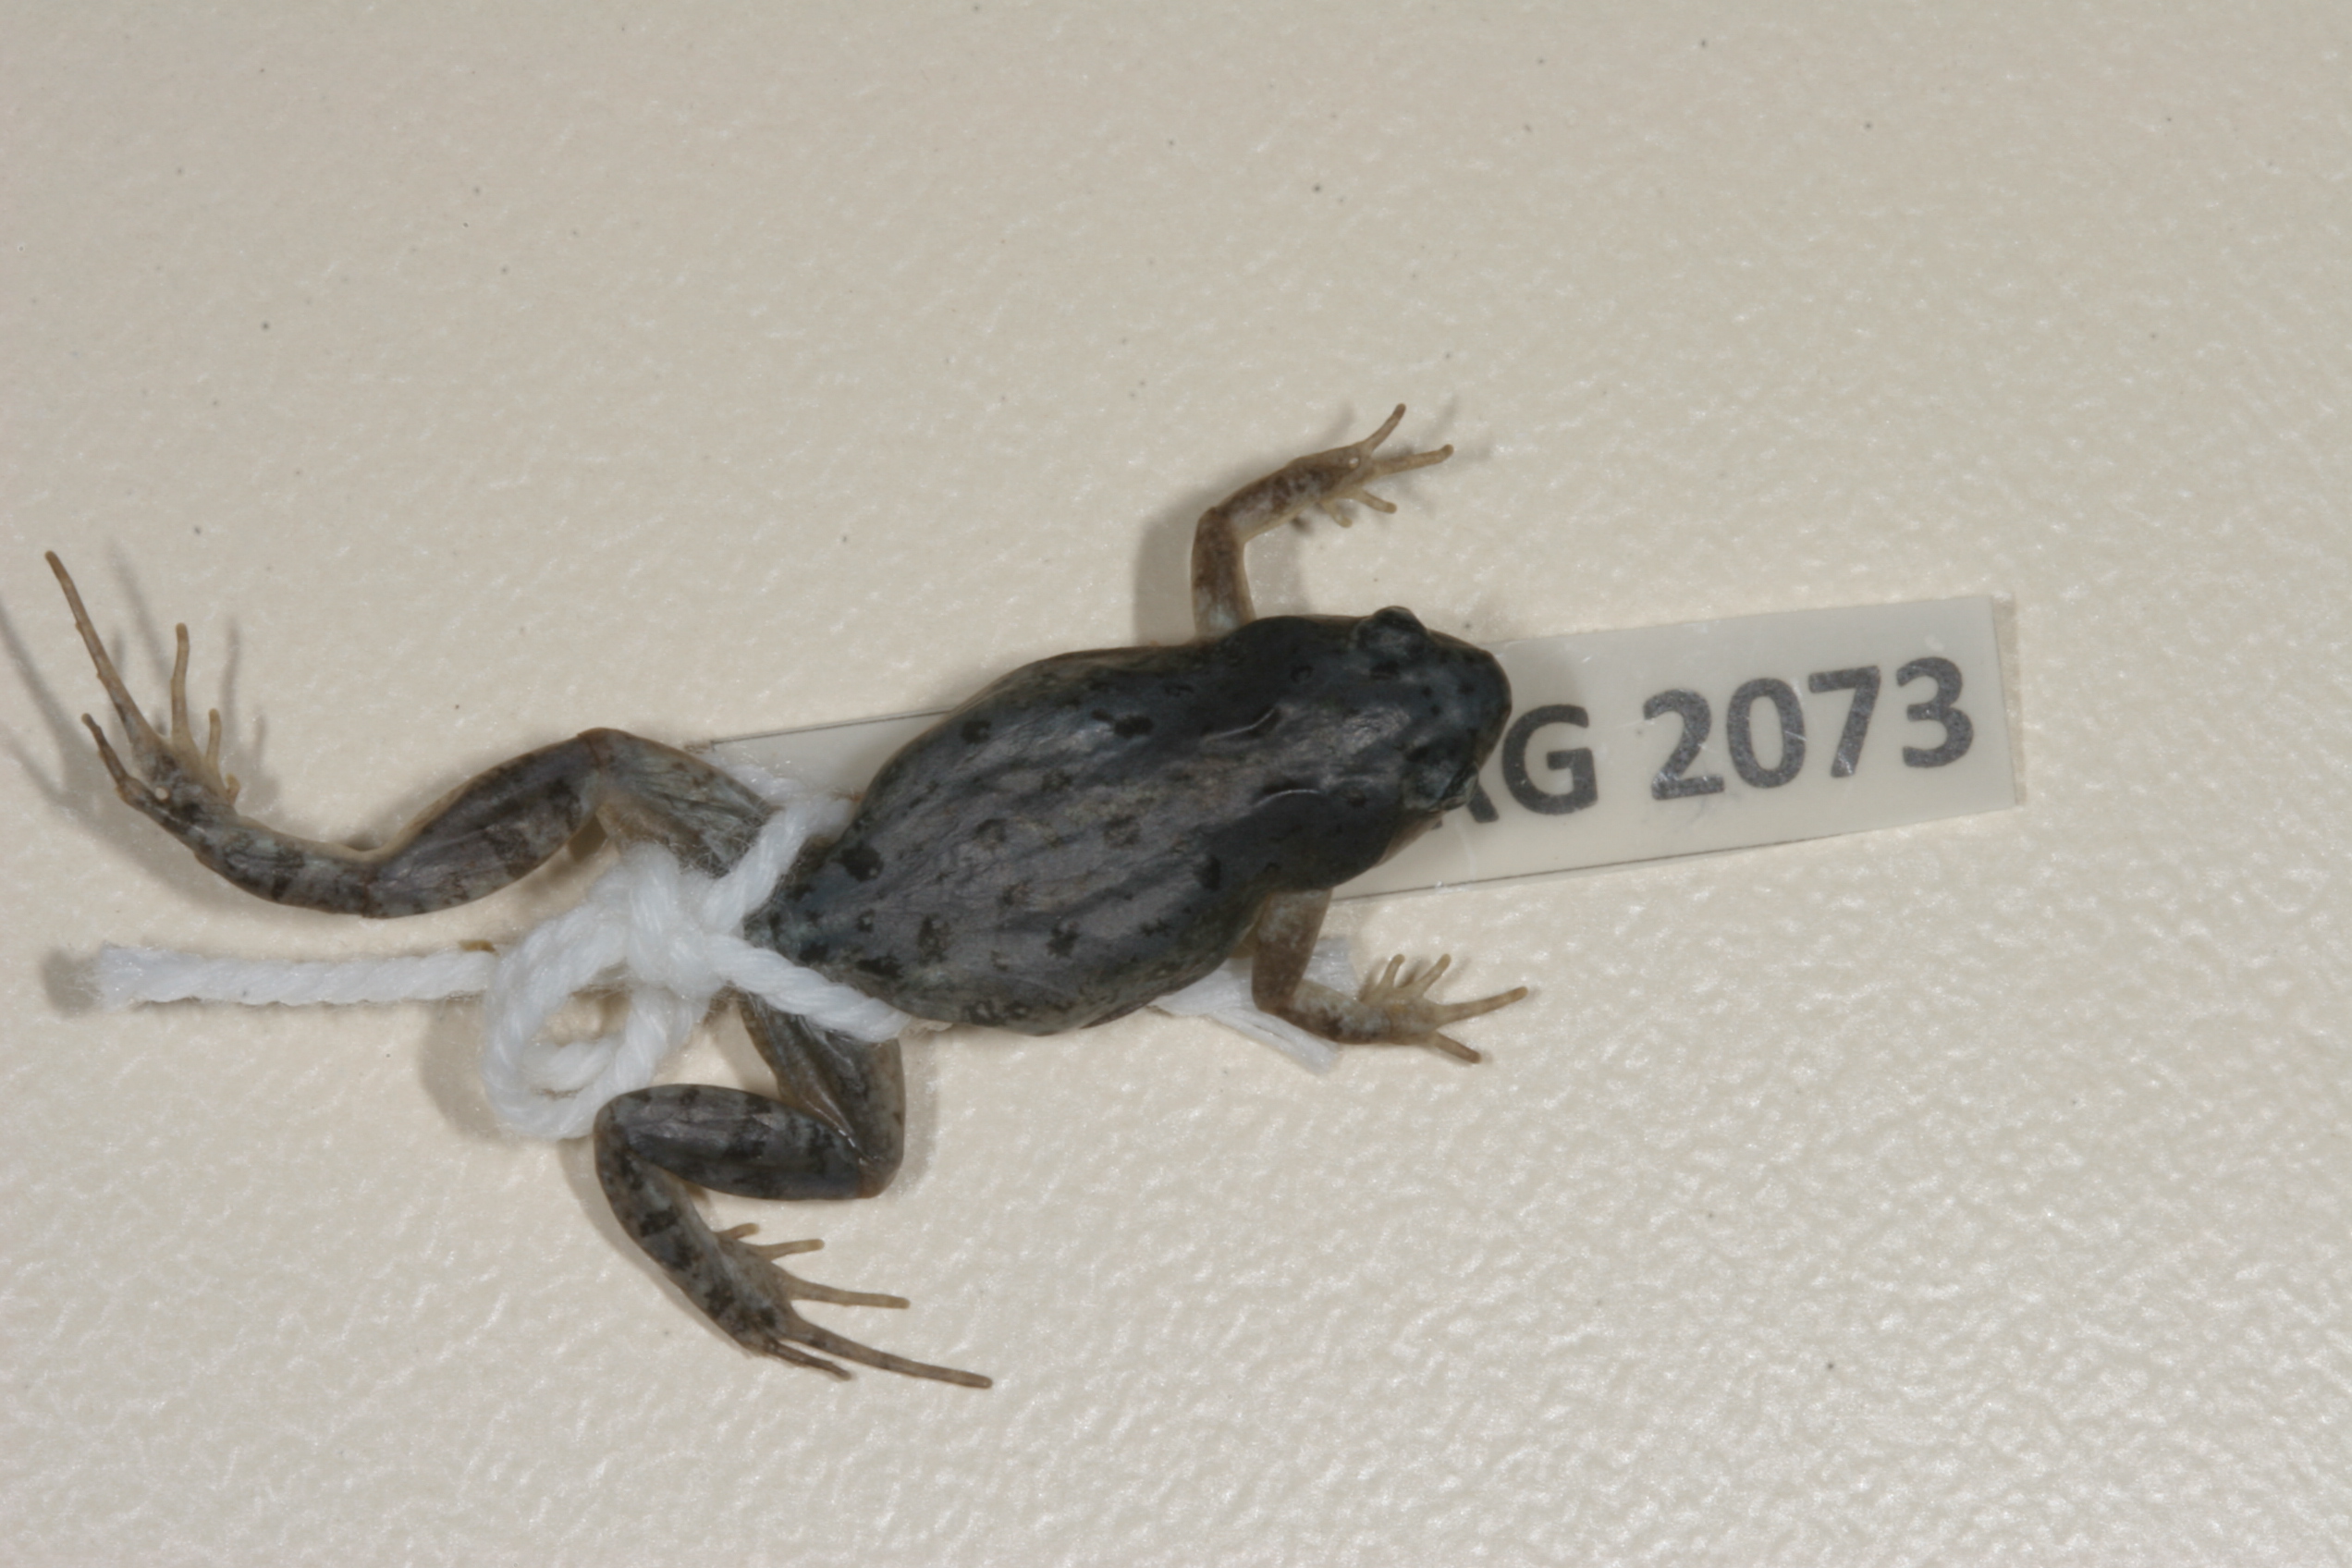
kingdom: Animalia
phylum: Chordata
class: Amphibia
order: Anura
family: Pyxicephalidae
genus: Cacosternum
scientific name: Cacosternum boettgeri
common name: Boettger's frog
